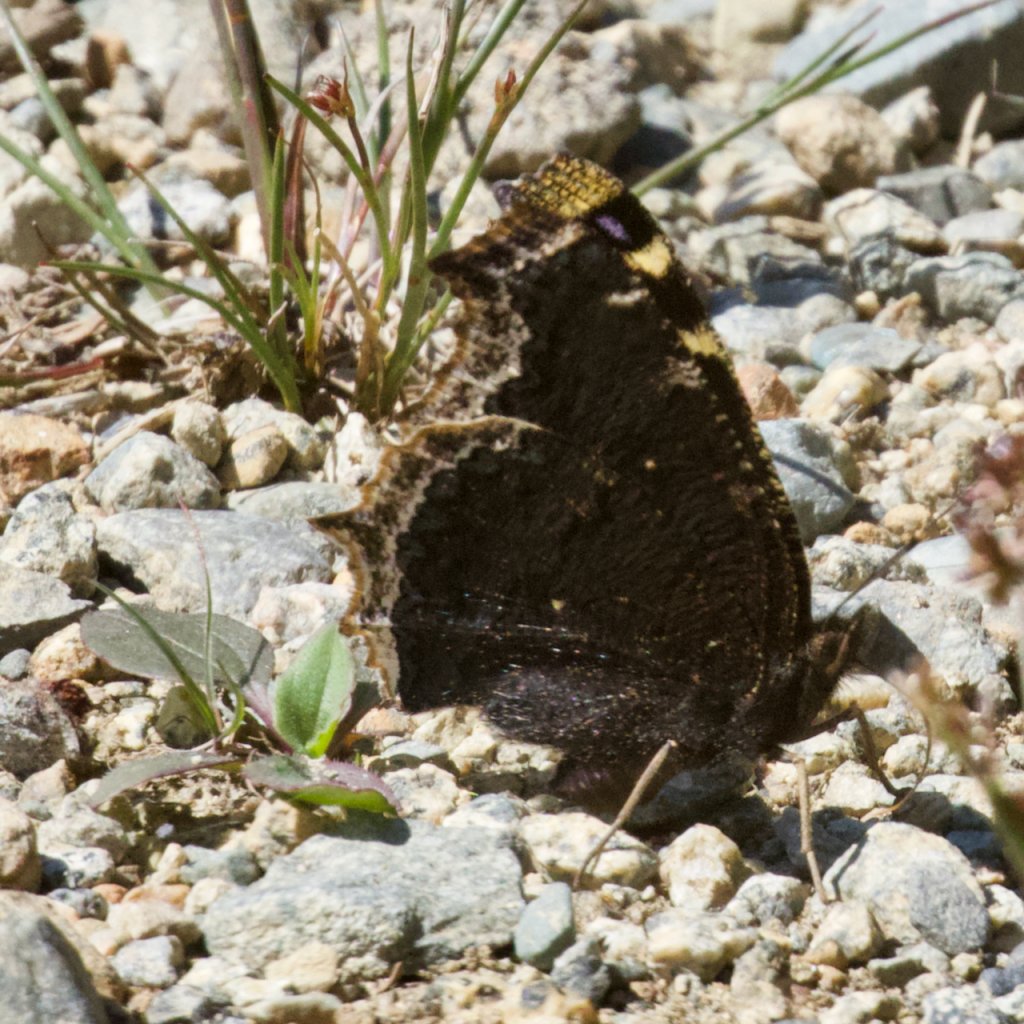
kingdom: Animalia
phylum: Arthropoda
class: Insecta
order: Lepidoptera
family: Nymphalidae
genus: Nymphalis
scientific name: Nymphalis antiopa
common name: Mourning Cloak
